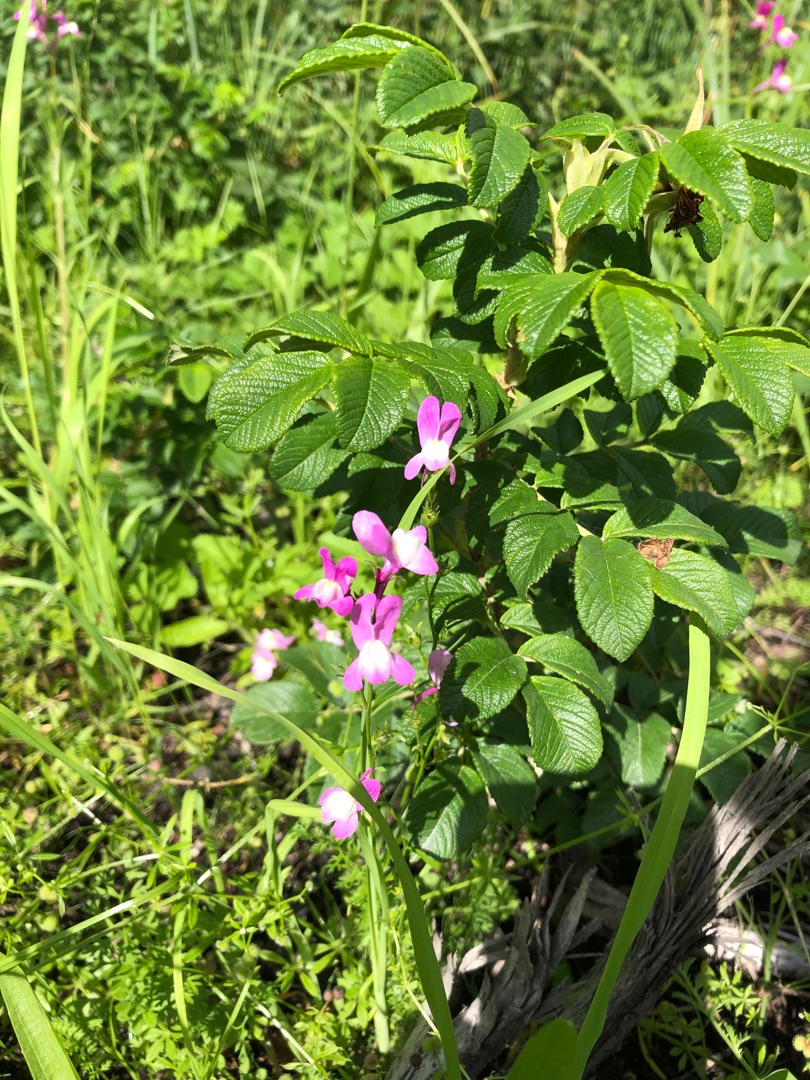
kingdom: Plantae
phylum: Tracheophyta
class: Magnoliopsida
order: Lamiales
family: Plantaginaceae
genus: Linaria
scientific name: Linaria maroccana
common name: Marokkansk torskemund
